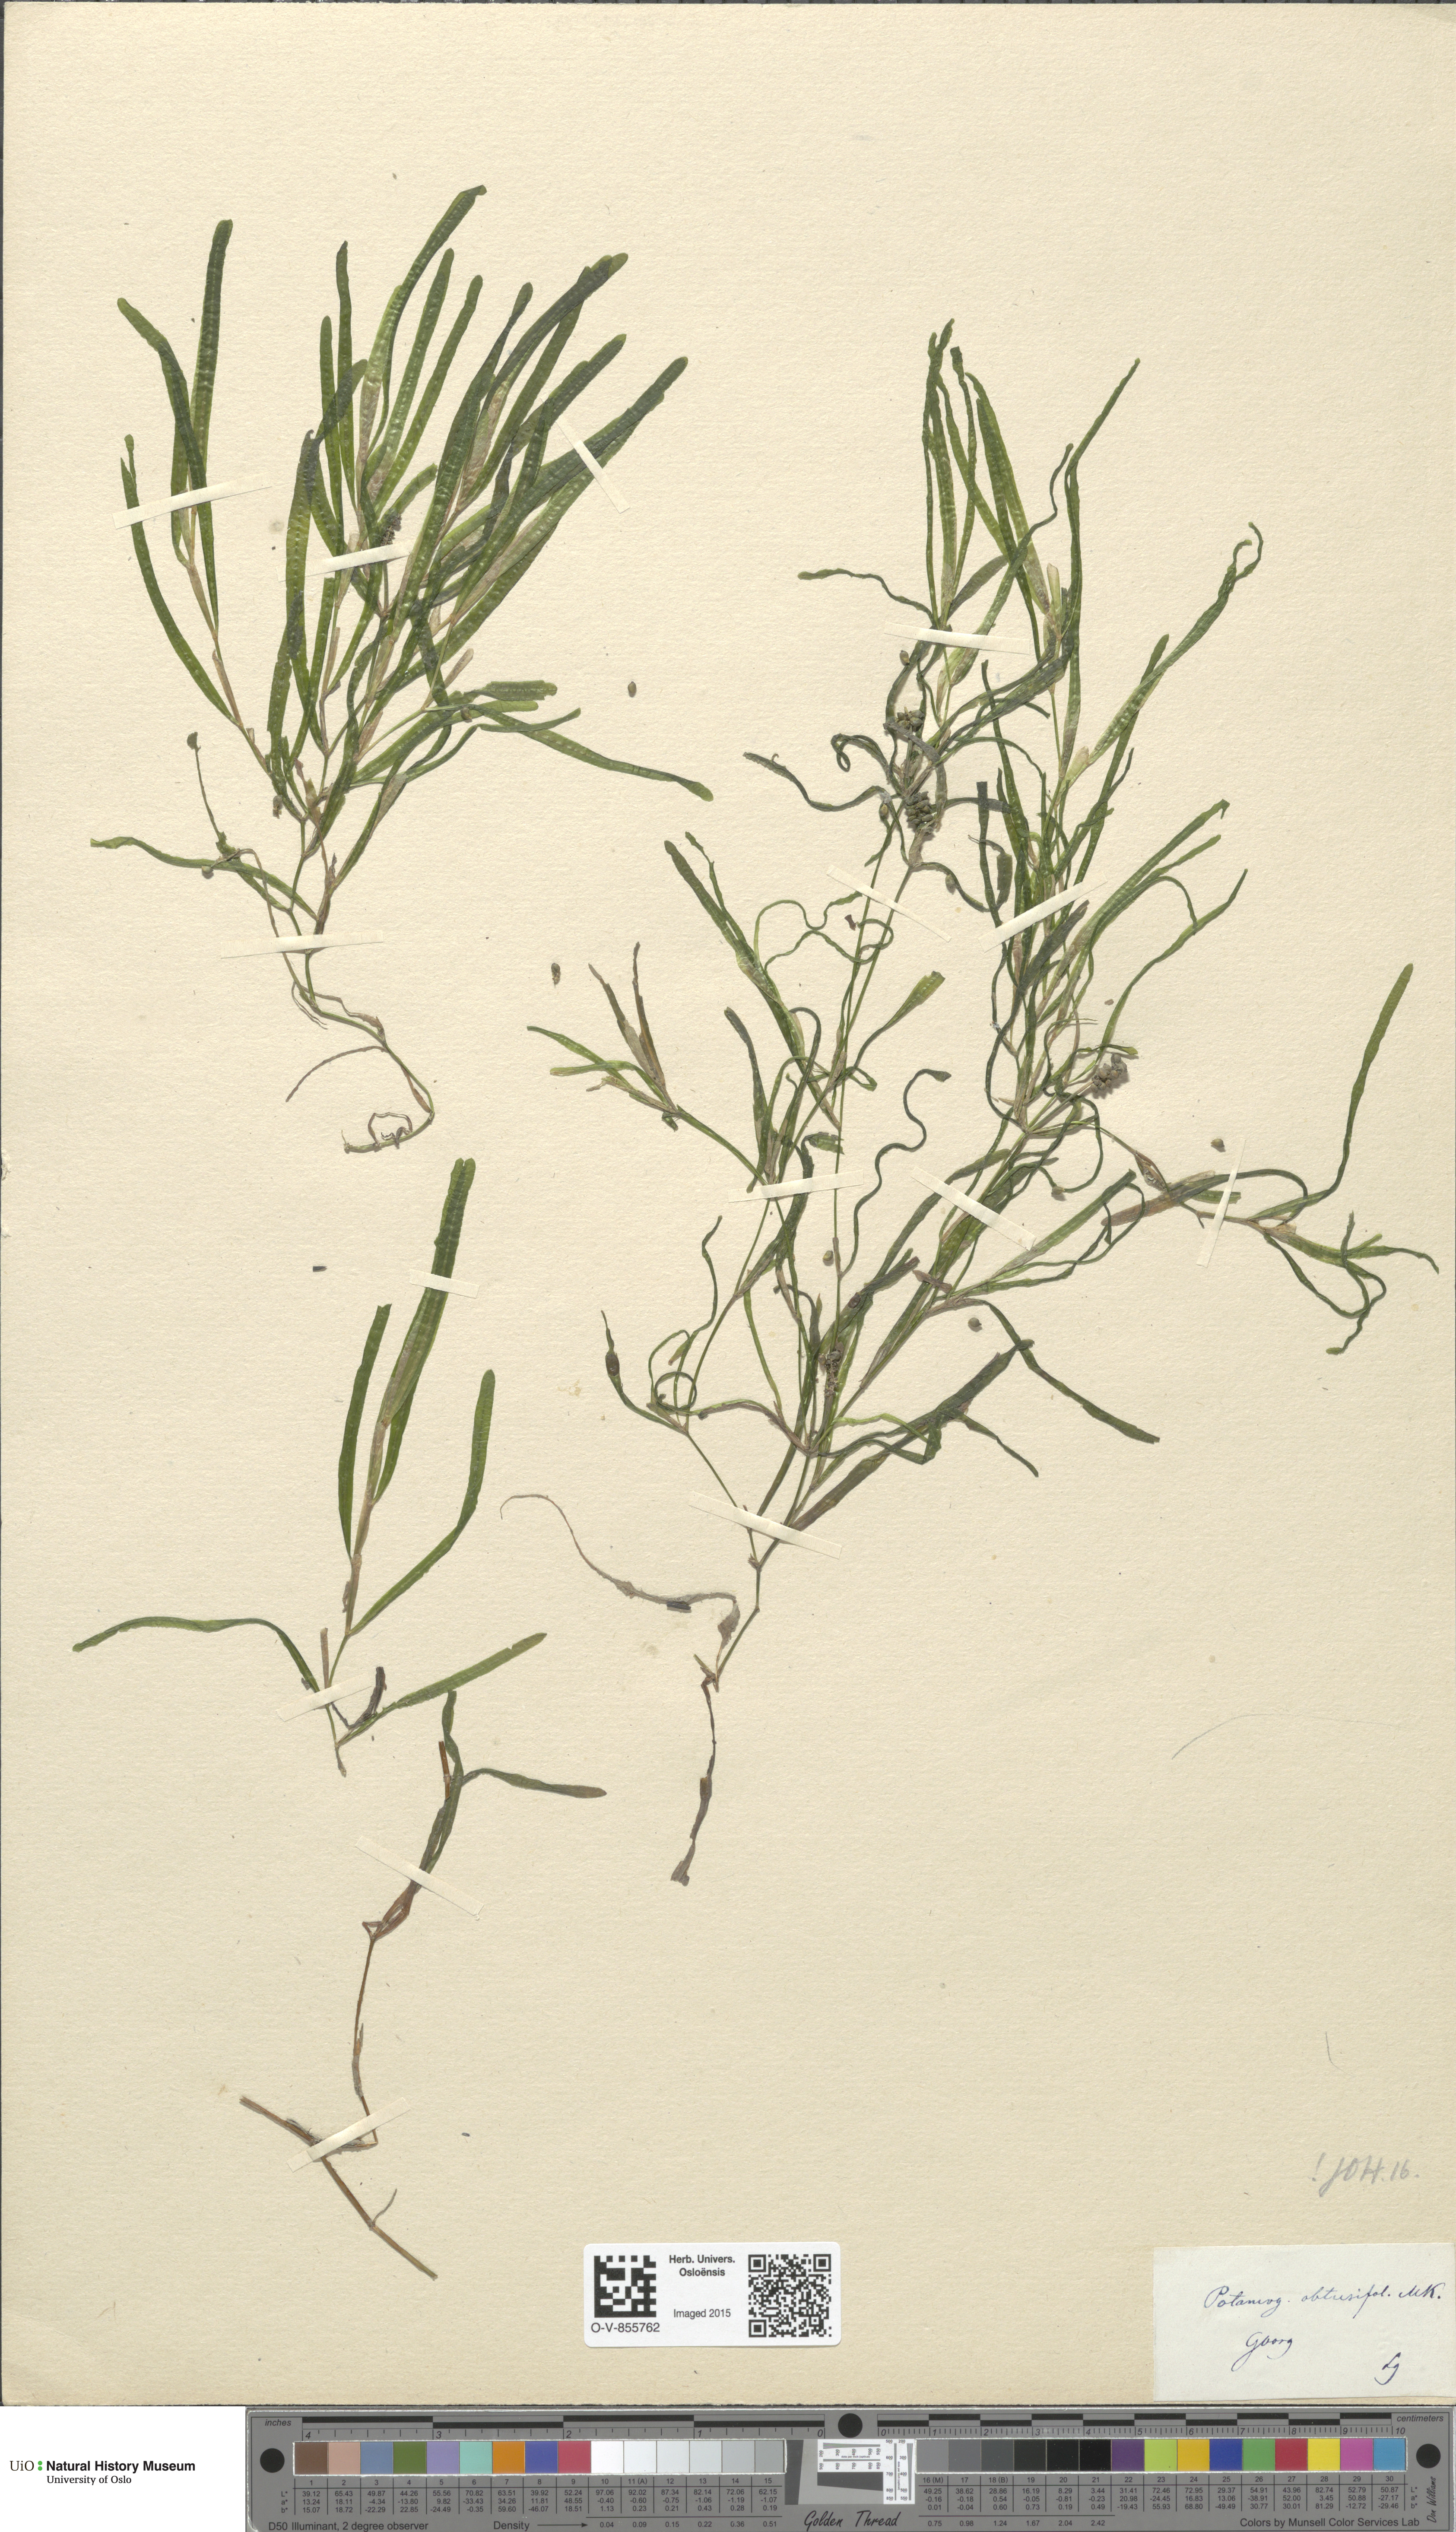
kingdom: Plantae
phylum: Tracheophyta
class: Liliopsida
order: Alismatales
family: Potamogetonaceae
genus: Potamogeton
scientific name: Potamogeton obtusifolius
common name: Blunt-leaved pondweed
